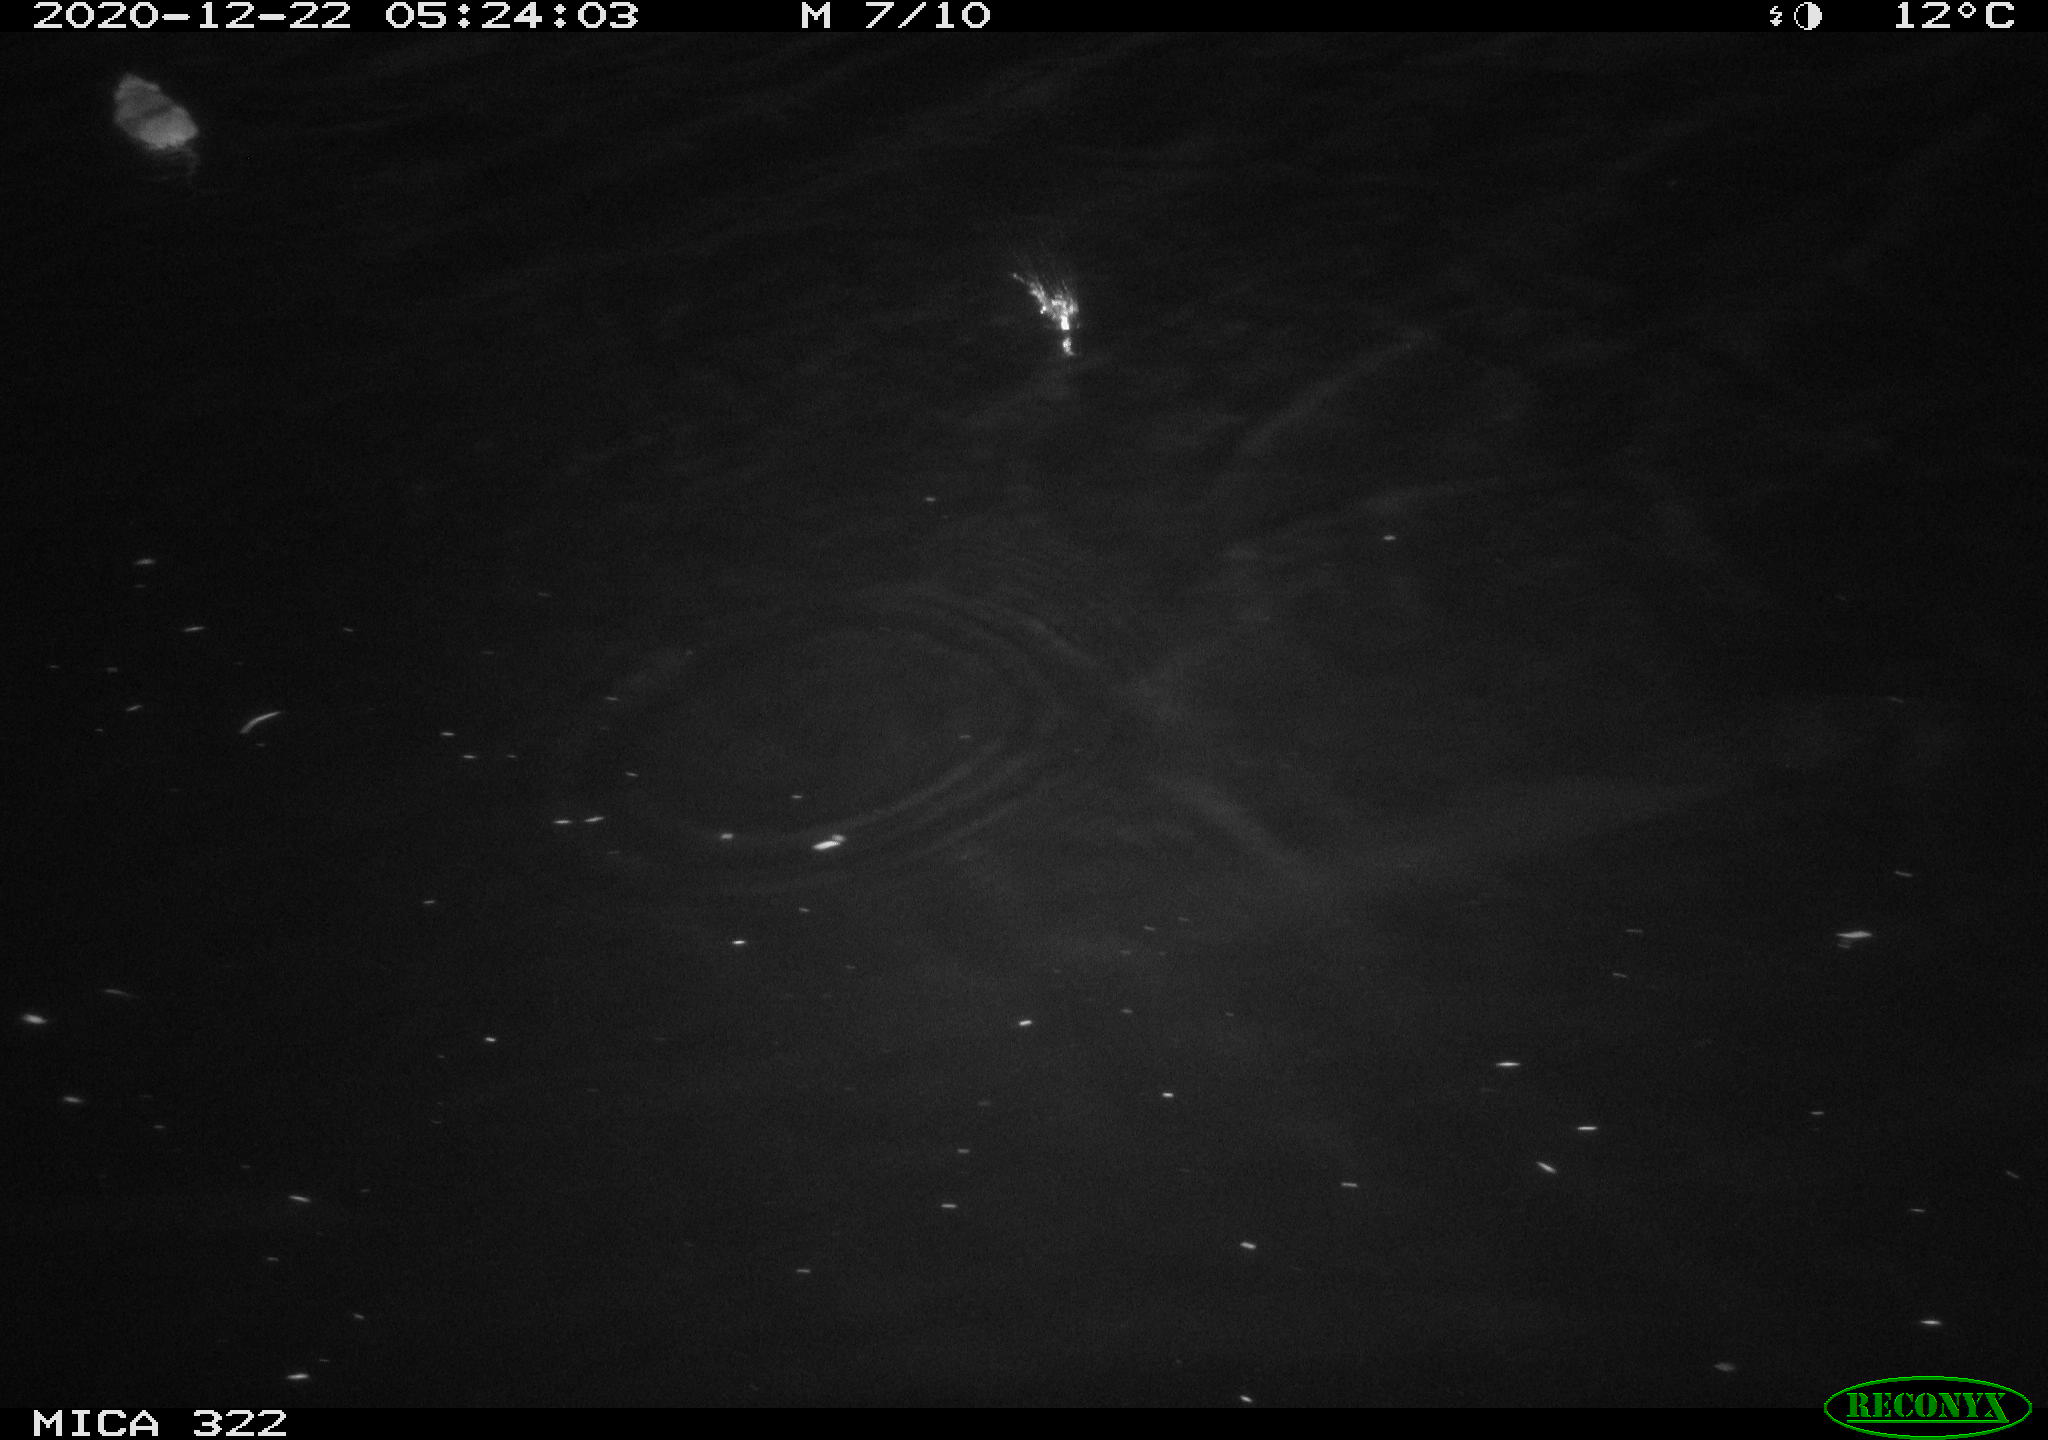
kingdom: Animalia
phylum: Chordata
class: Mammalia
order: Rodentia
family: Muridae
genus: Rattus
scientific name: Rattus norvegicus
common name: Brown rat
